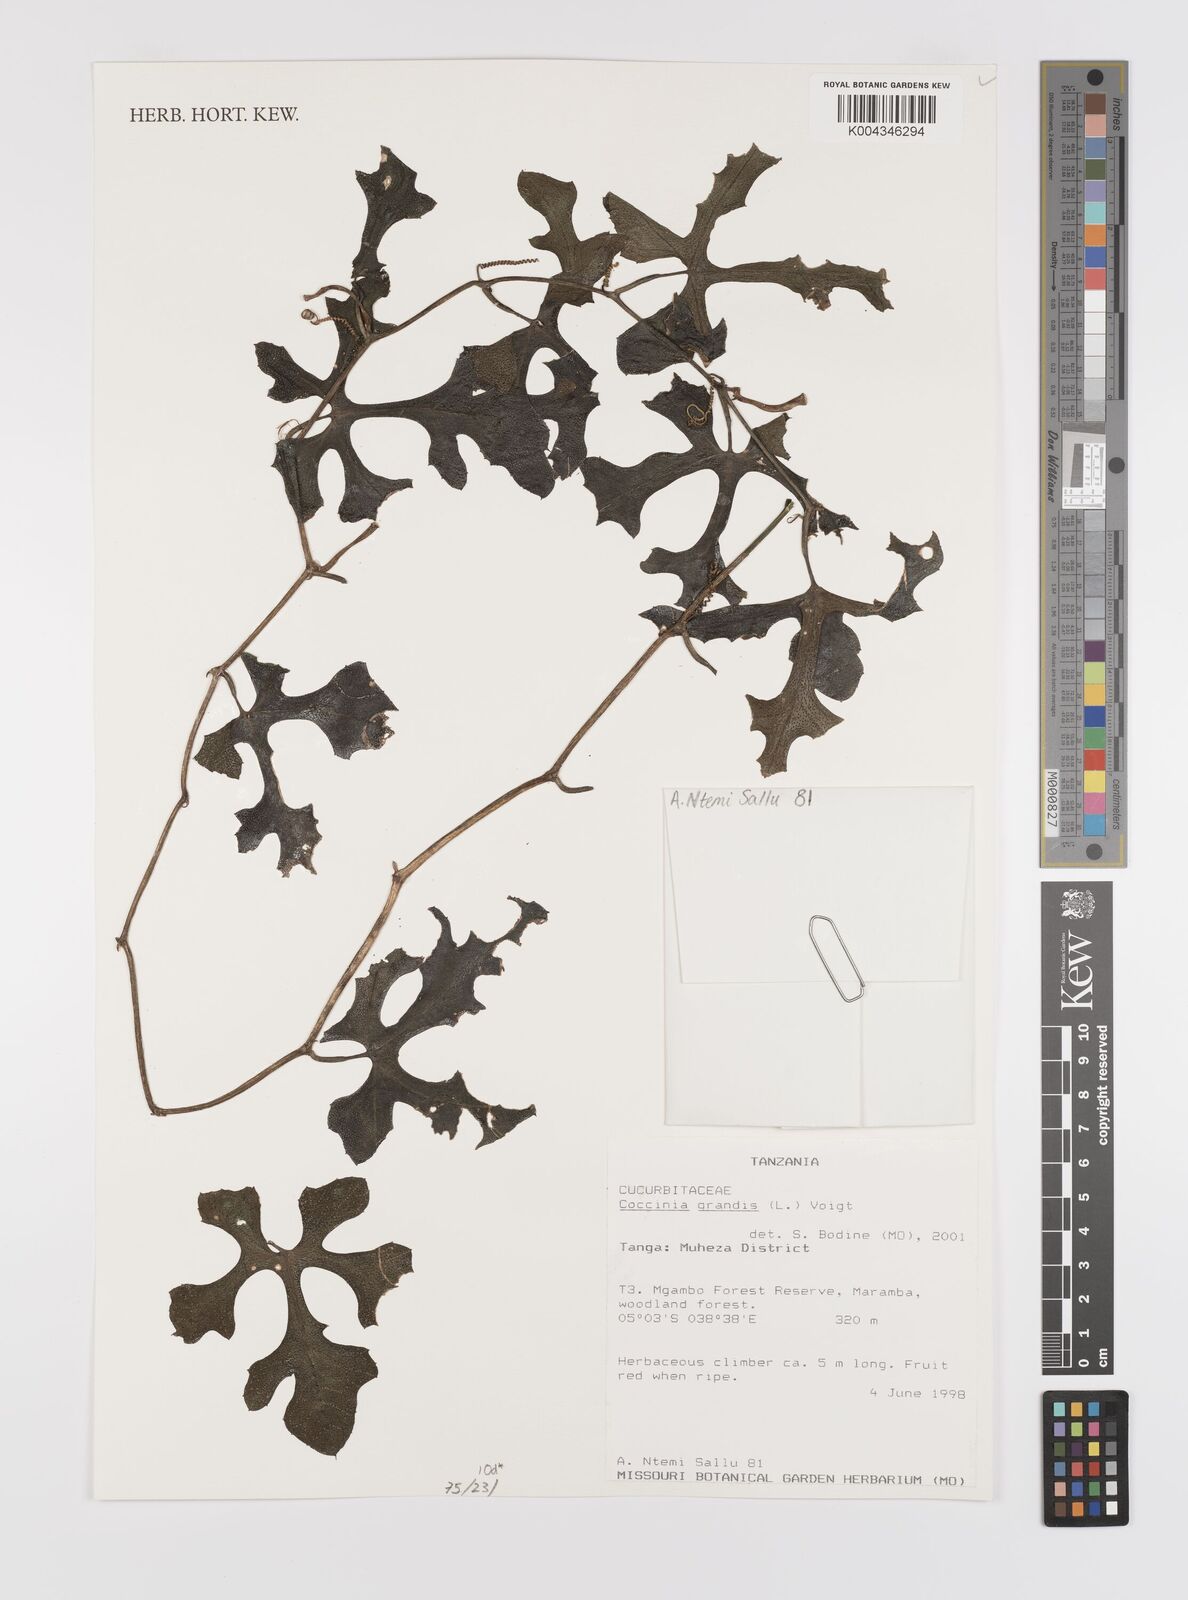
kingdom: Plantae
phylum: Tracheophyta
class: Magnoliopsida
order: Cucurbitales
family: Cucurbitaceae
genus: Coccinia
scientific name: Coccinia grandis
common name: Ivy gourd
